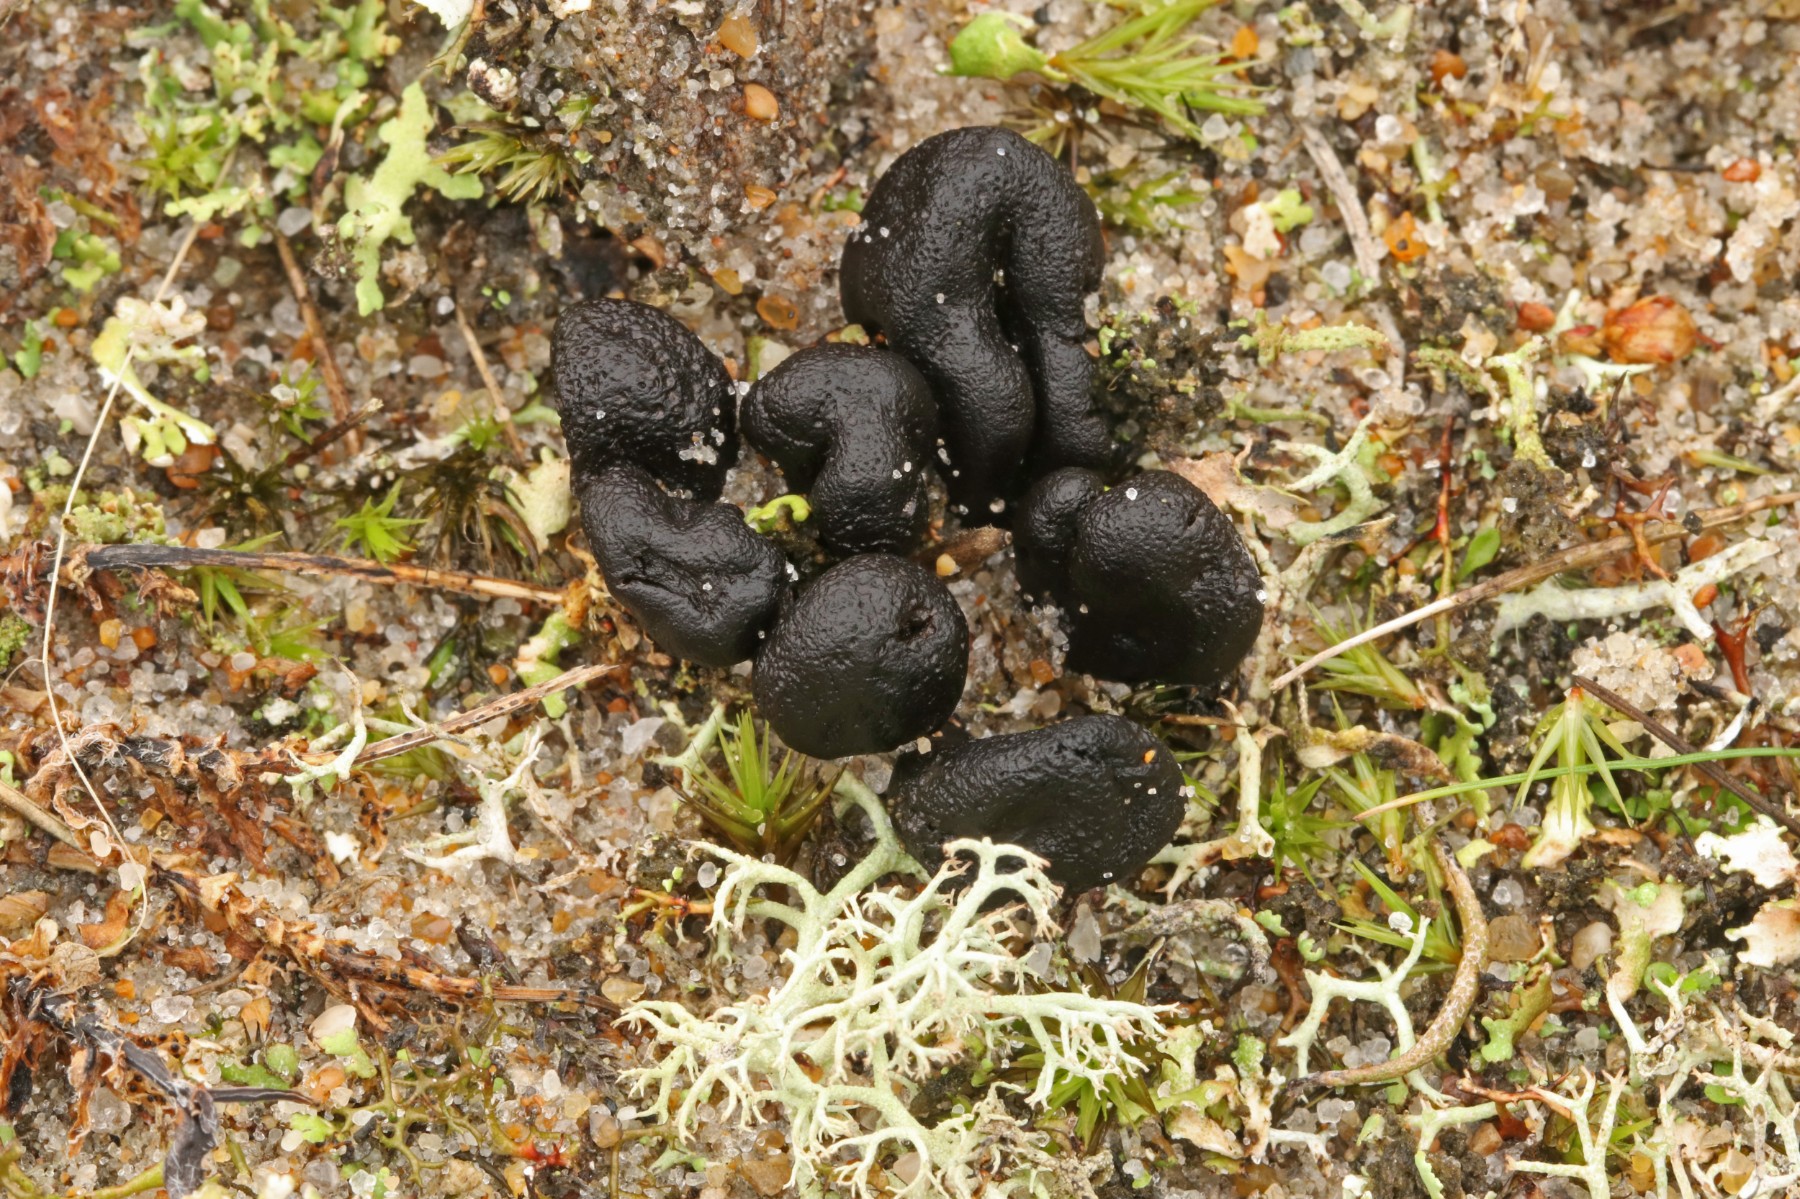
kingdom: Fungi
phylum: Ascomycota
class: Geoglossomycetes
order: Geoglossales
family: Geoglossaceae
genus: Sabuloglossum
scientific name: Sabuloglossum arenarium
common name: klit-jordtunge
